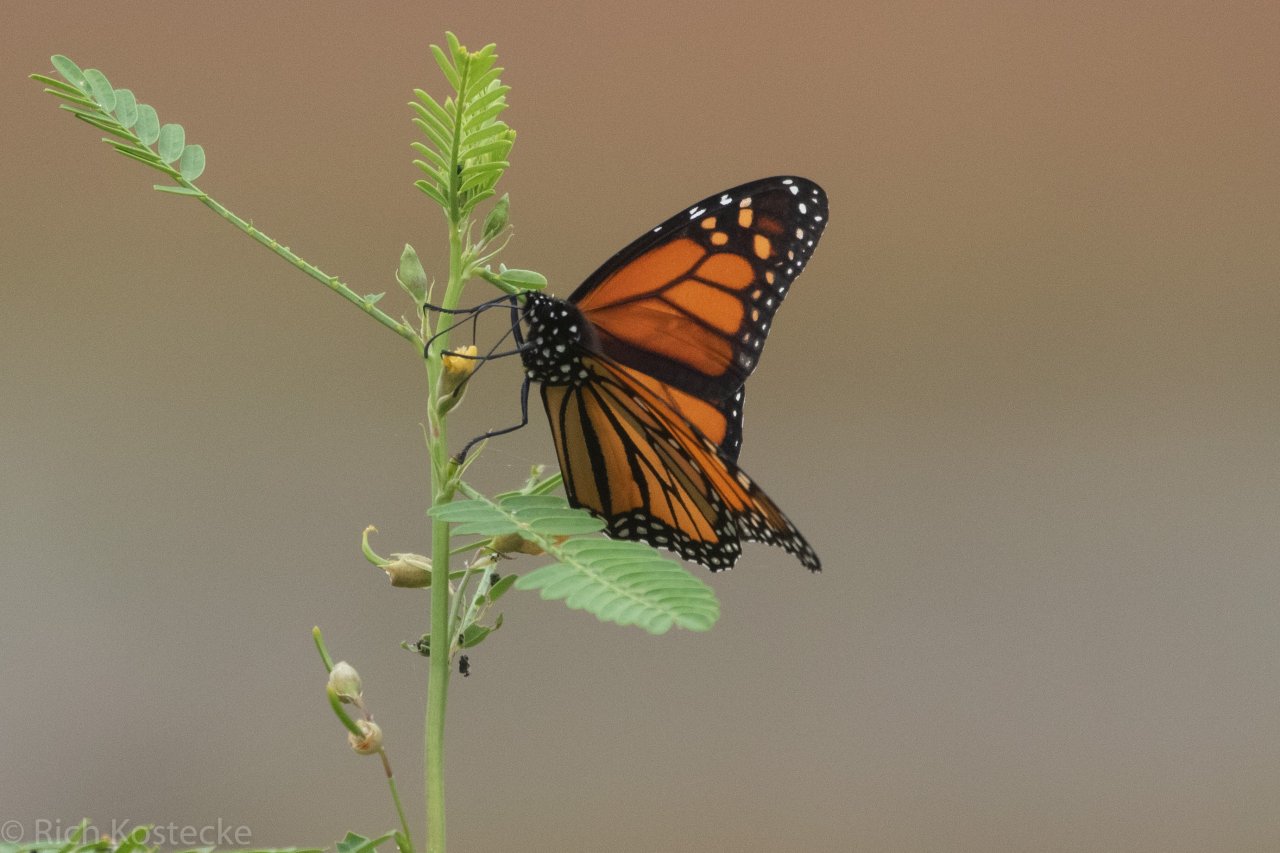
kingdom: Animalia
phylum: Arthropoda
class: Insecta
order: Lepidoptera
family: Nymphalidae
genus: Danaus
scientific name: Danaus plexippus
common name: Monarch
